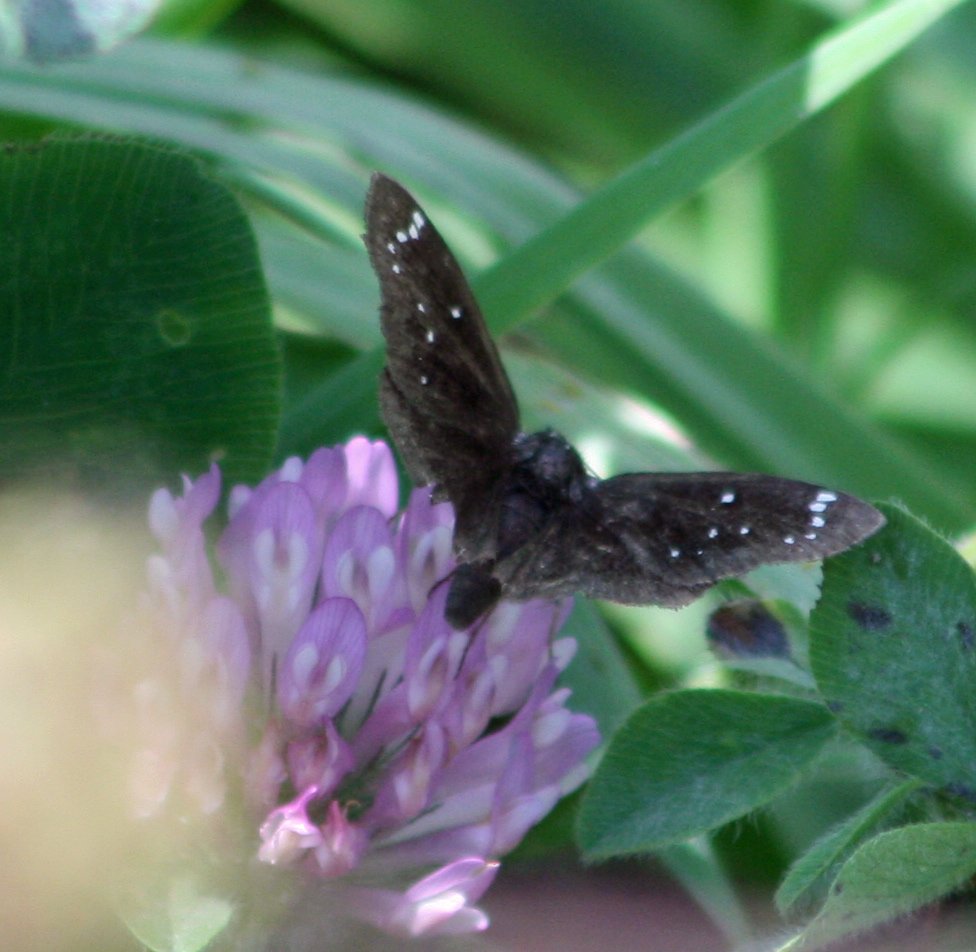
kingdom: Animalia
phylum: Arthropoda
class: Insecta
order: Lepidoptera
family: Hesperiidae
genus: Pholisora
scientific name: Pholisora catullus
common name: Common Sootywing
